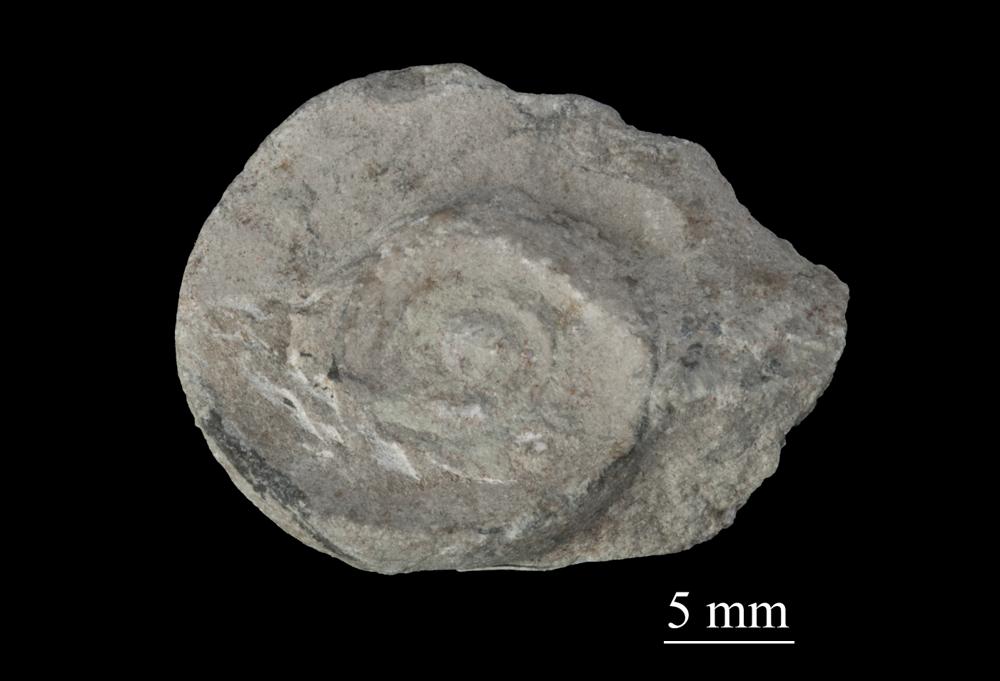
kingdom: Animalia
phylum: Mollusca
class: Gastropoda
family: Lesueurillidae
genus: Pararaphistoma
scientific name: Pararaphistoma Raphistoma scalare
